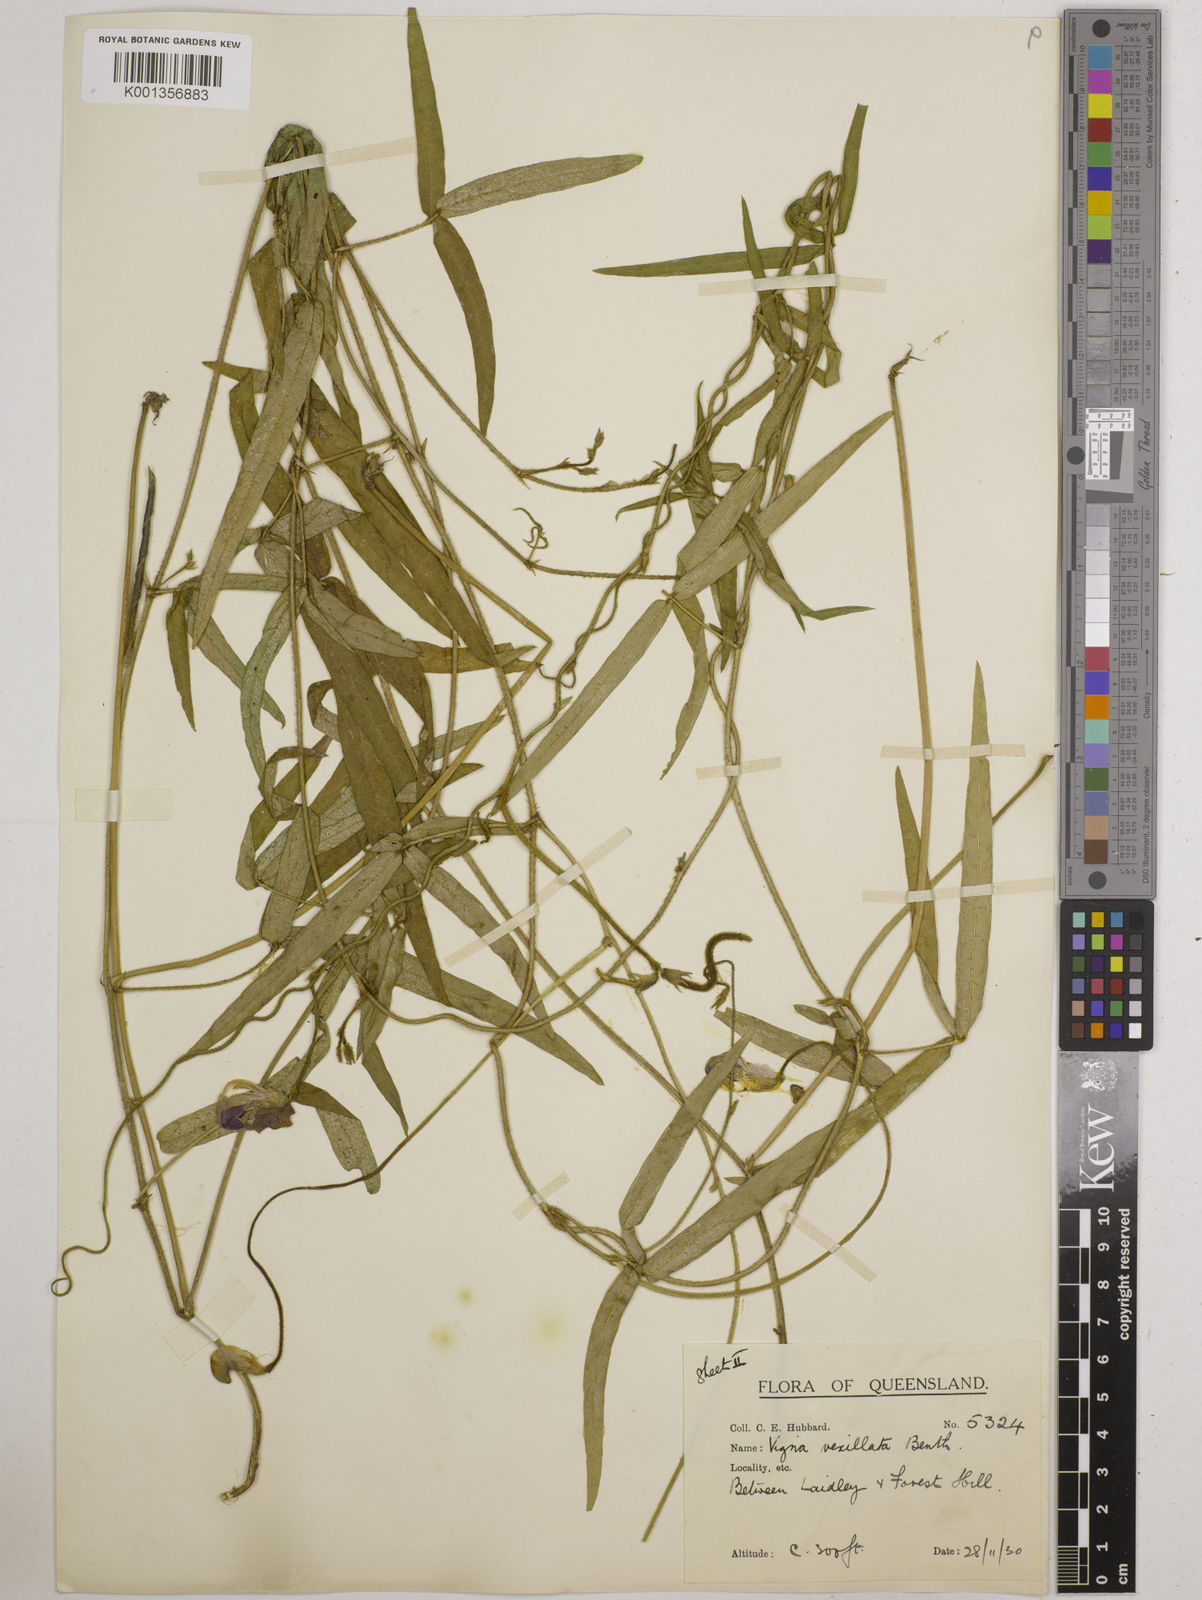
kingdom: Plantae
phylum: Tracheophyta
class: Magnoliopsida
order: Fabales
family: Fabaceae
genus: Vigna
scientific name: Vigna vexillata
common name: Zombi pea
